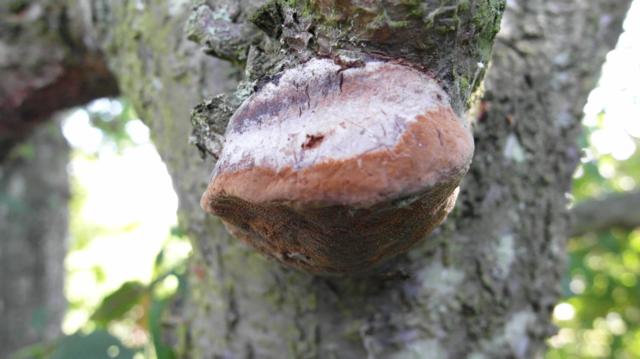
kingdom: Fungi
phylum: Basidiomycota
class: Agaricomycetes
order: Hymenochaetales
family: Hymenochaetaceae
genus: Phellinus
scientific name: Phellinus pomaceus
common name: blomme-ildporesvamp
